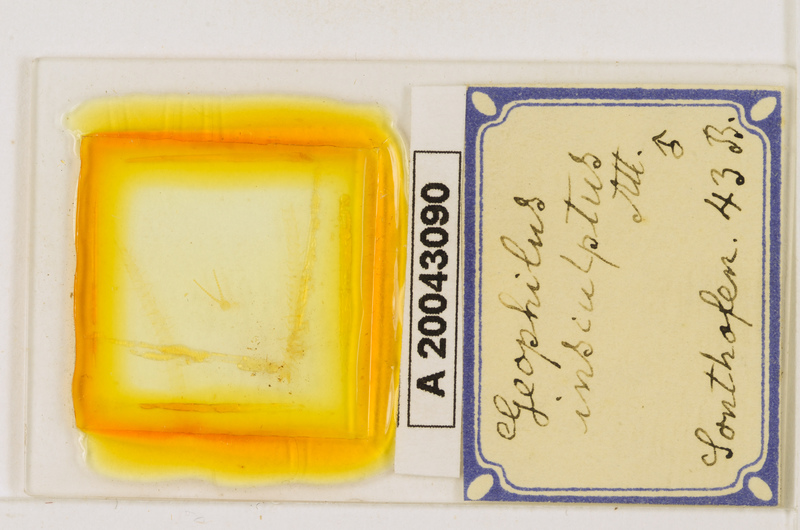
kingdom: Animalia
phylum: Arthropoda
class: Chilopoda
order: Geophilomorpha
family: Geophilidae
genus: Geophilus
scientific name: Geophilus insculptus
